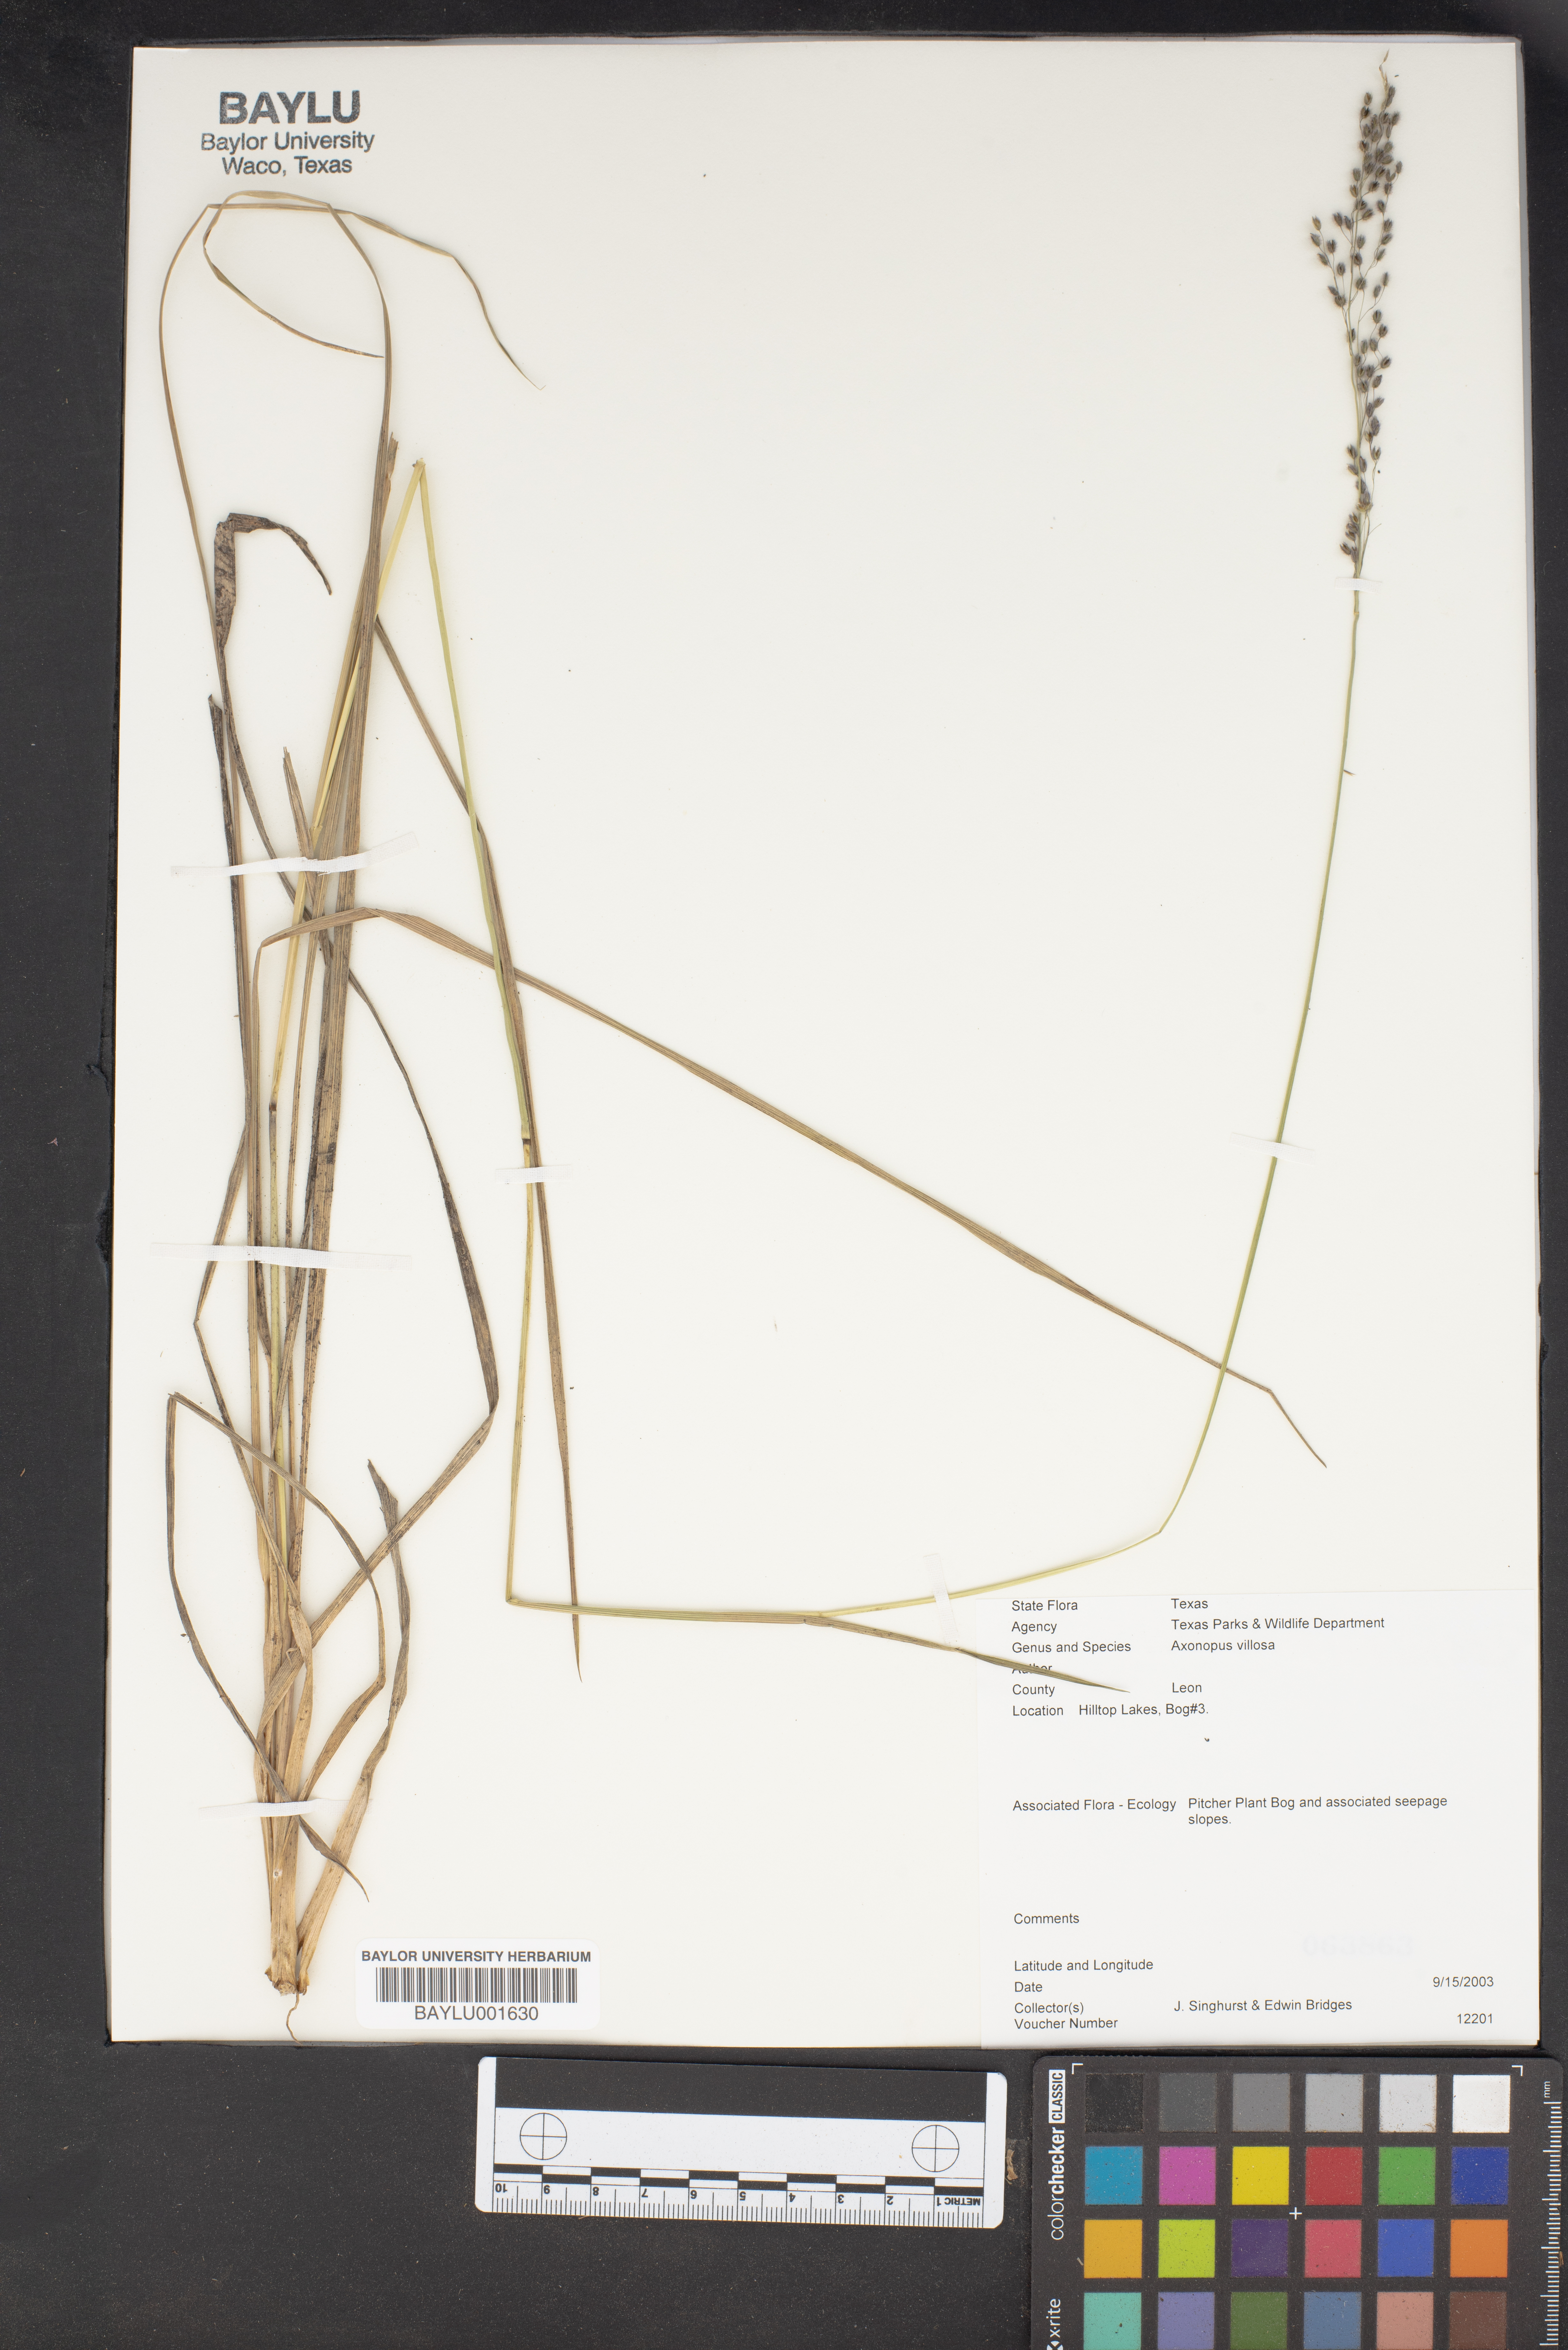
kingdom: Plantae
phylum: Tracheophyta
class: Liliopsida
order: Poales
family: Poaceae
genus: Axonopus
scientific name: Axonopus comatus
